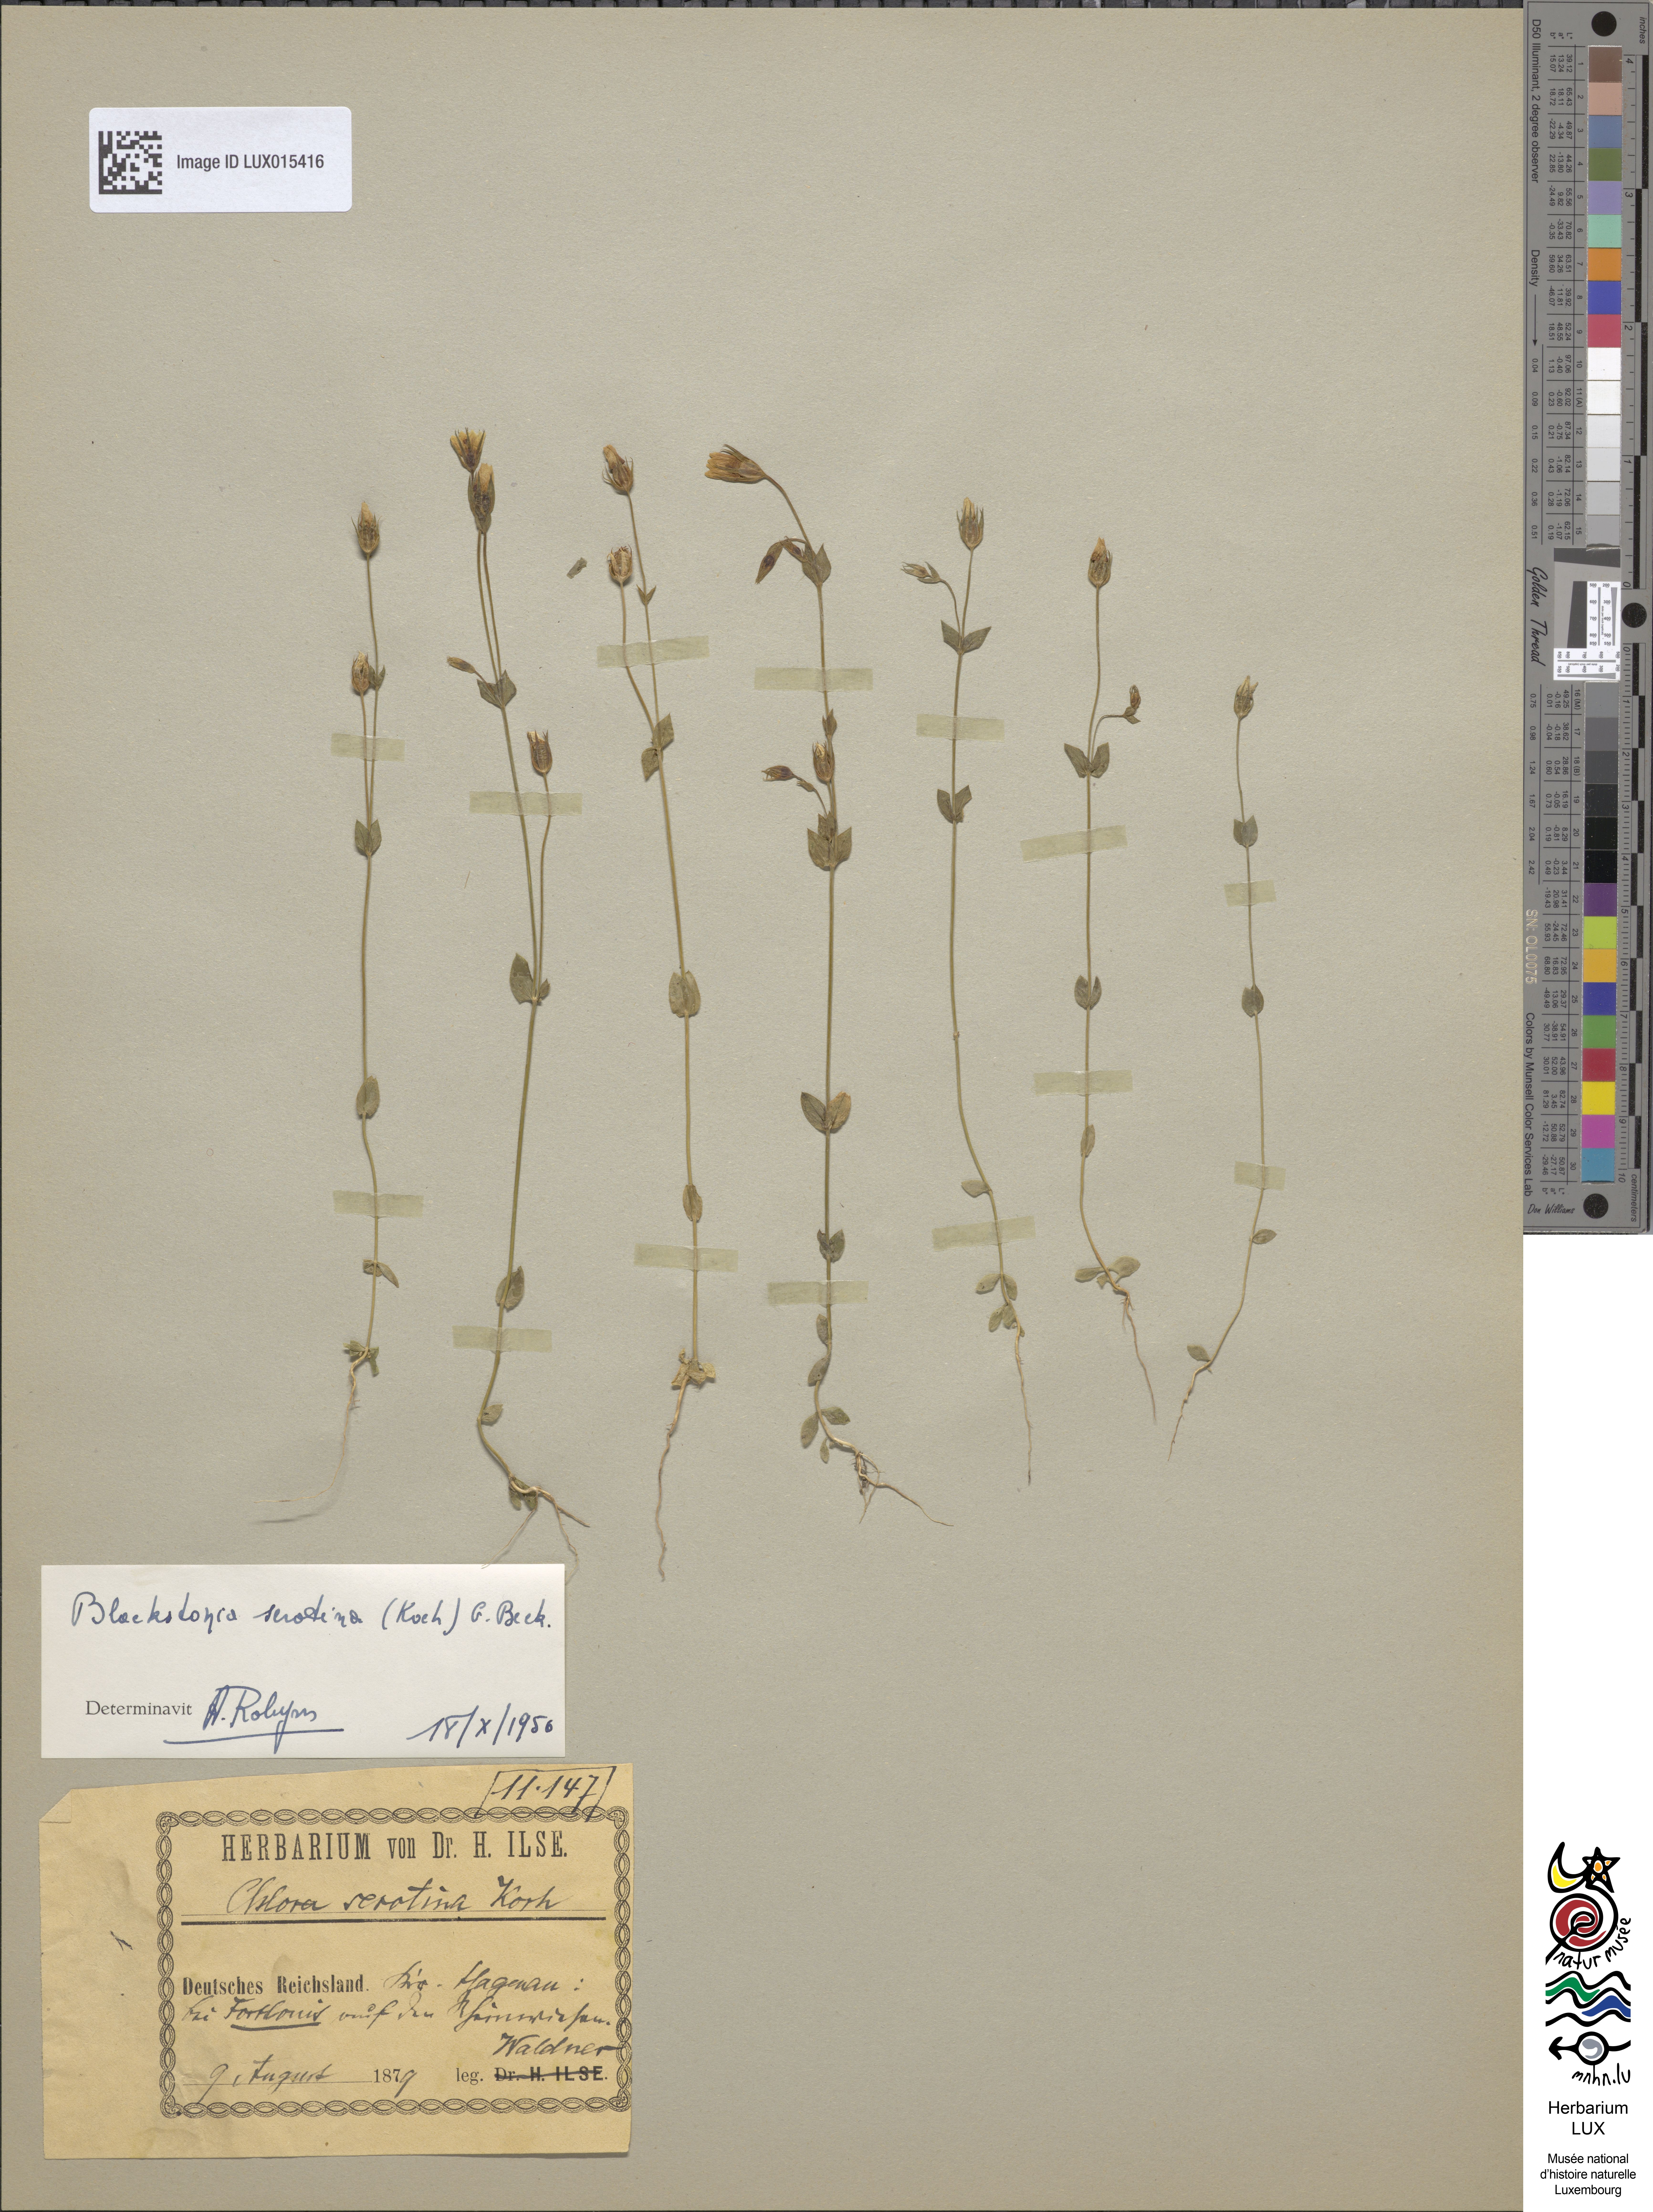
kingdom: Plantae
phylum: Tracheophyta
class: Magnoliopsida
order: Gentianales
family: Gentianaceae
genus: Blackstonia
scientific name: Blackstonia perfoliata
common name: Yellow-wort
